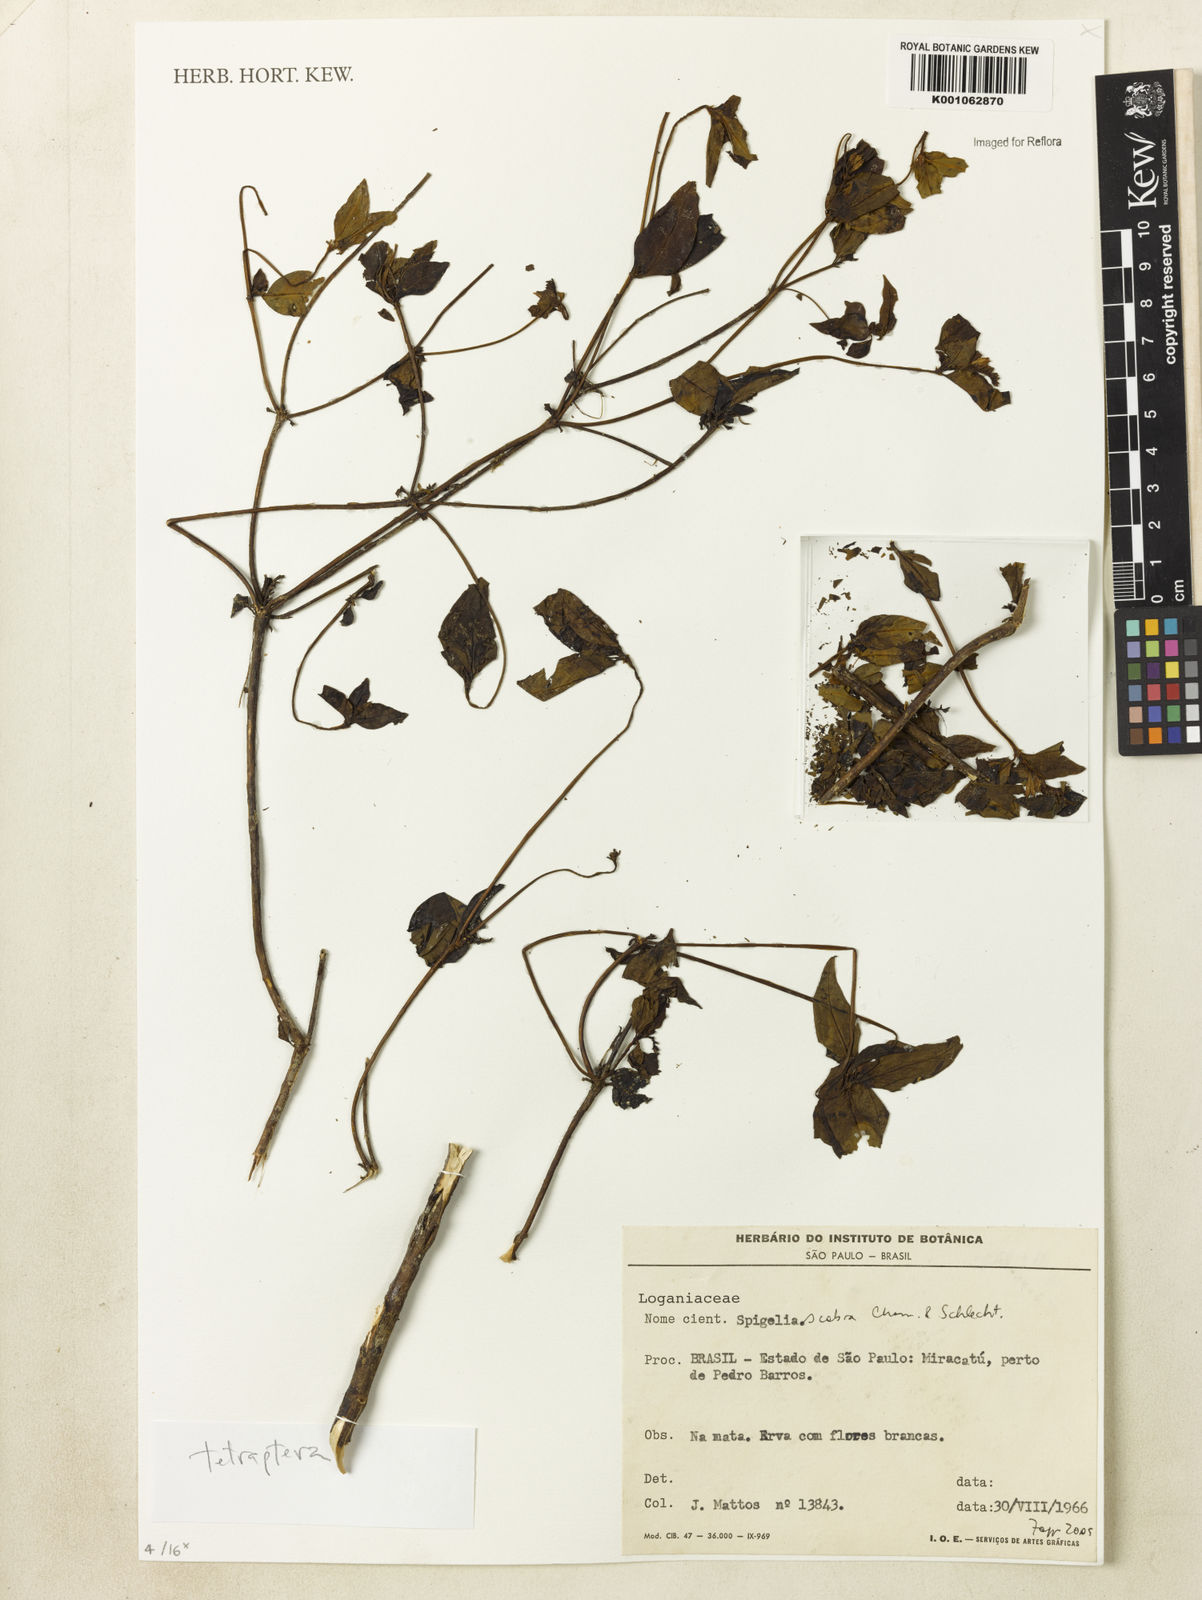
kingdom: Plantae
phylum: Tracheophyta
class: Magnoliopsida
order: Gentianales
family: Loganiaceae
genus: Spigelia
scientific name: Spigelia humboldtiana
